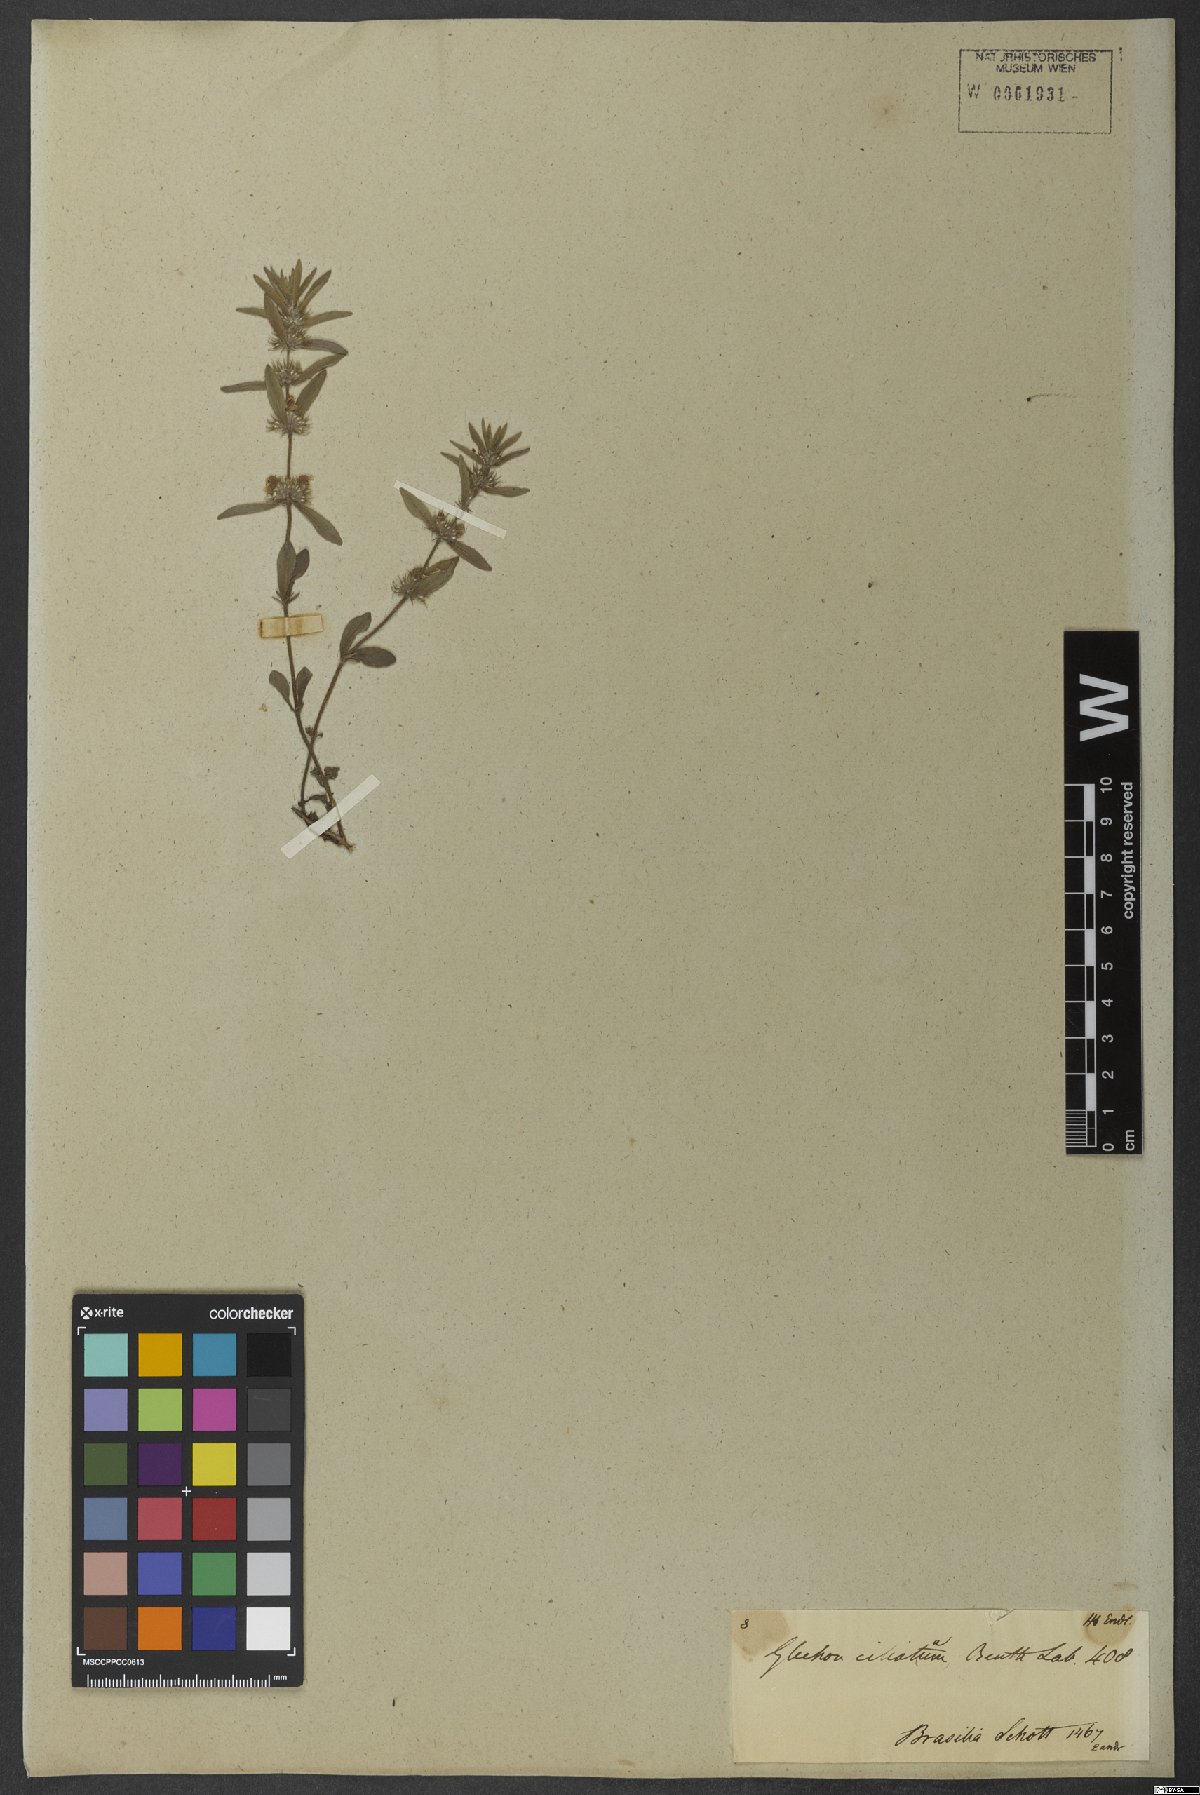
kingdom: Plantae
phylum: Tracheophyta
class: Magnoliopsida
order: Lamiales
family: Lamiaceae
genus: Glechon
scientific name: Glechon ciliata
